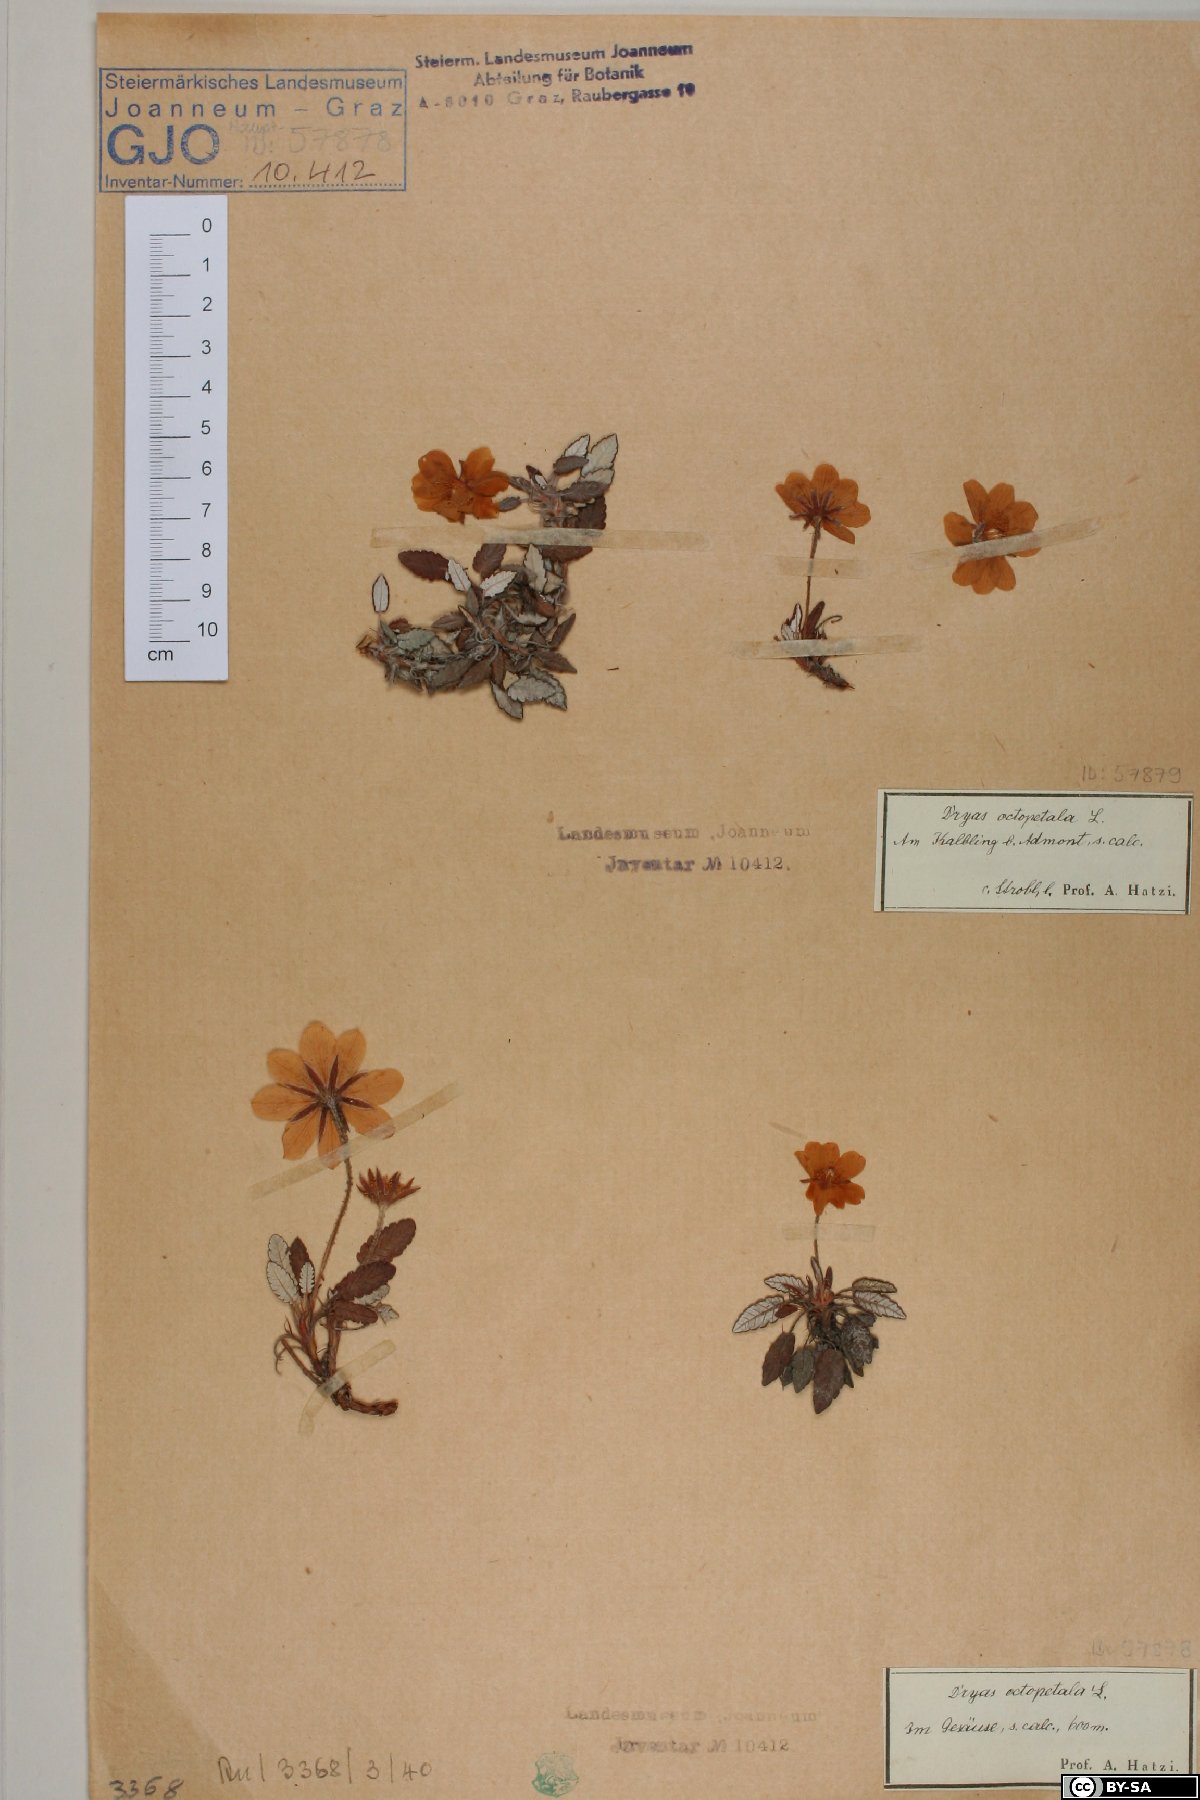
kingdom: Plantae
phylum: Tracheophyta
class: Magnoliopsida
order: Rosales
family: Rosaceae
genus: Dryas
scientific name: Dryas octopetala
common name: Eight-petal mountain-avens
